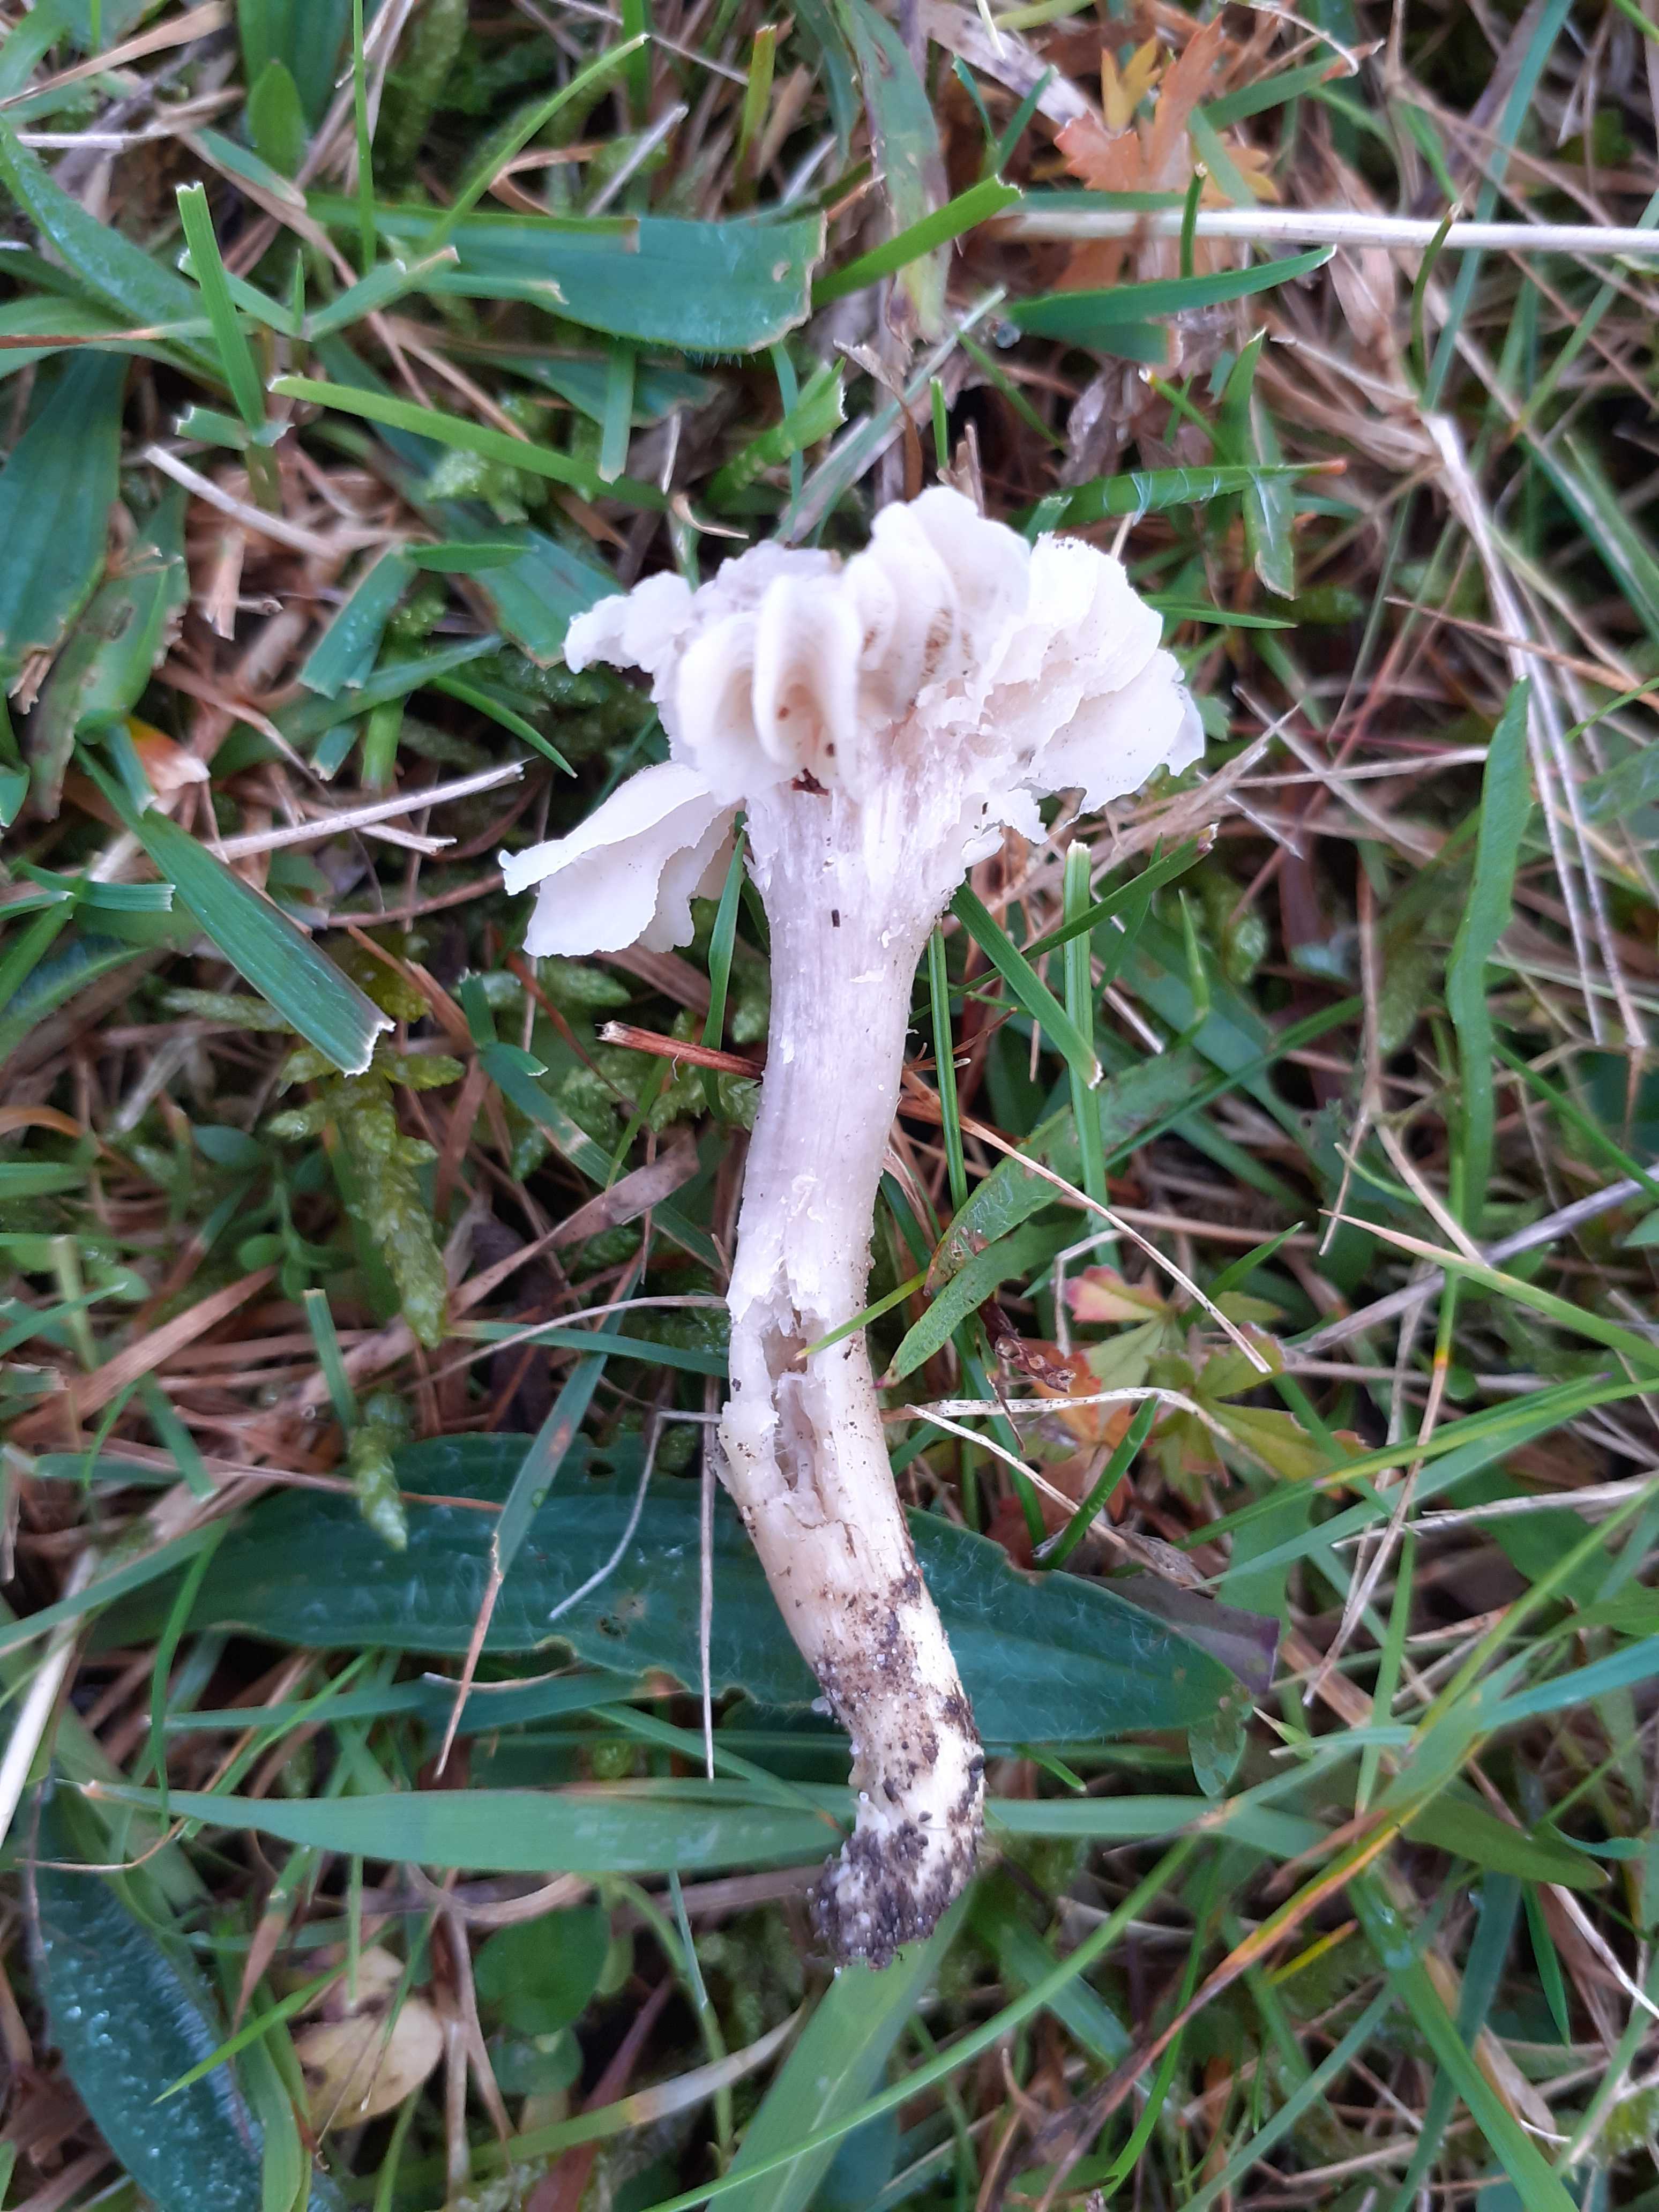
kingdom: Fungi
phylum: Basidiomycota
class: Agaricomycetes
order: Agaricales
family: Hygrophoraceae
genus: Cuphophyllus
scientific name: Cuphophyllus flavipes
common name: gulfodet vokshat
